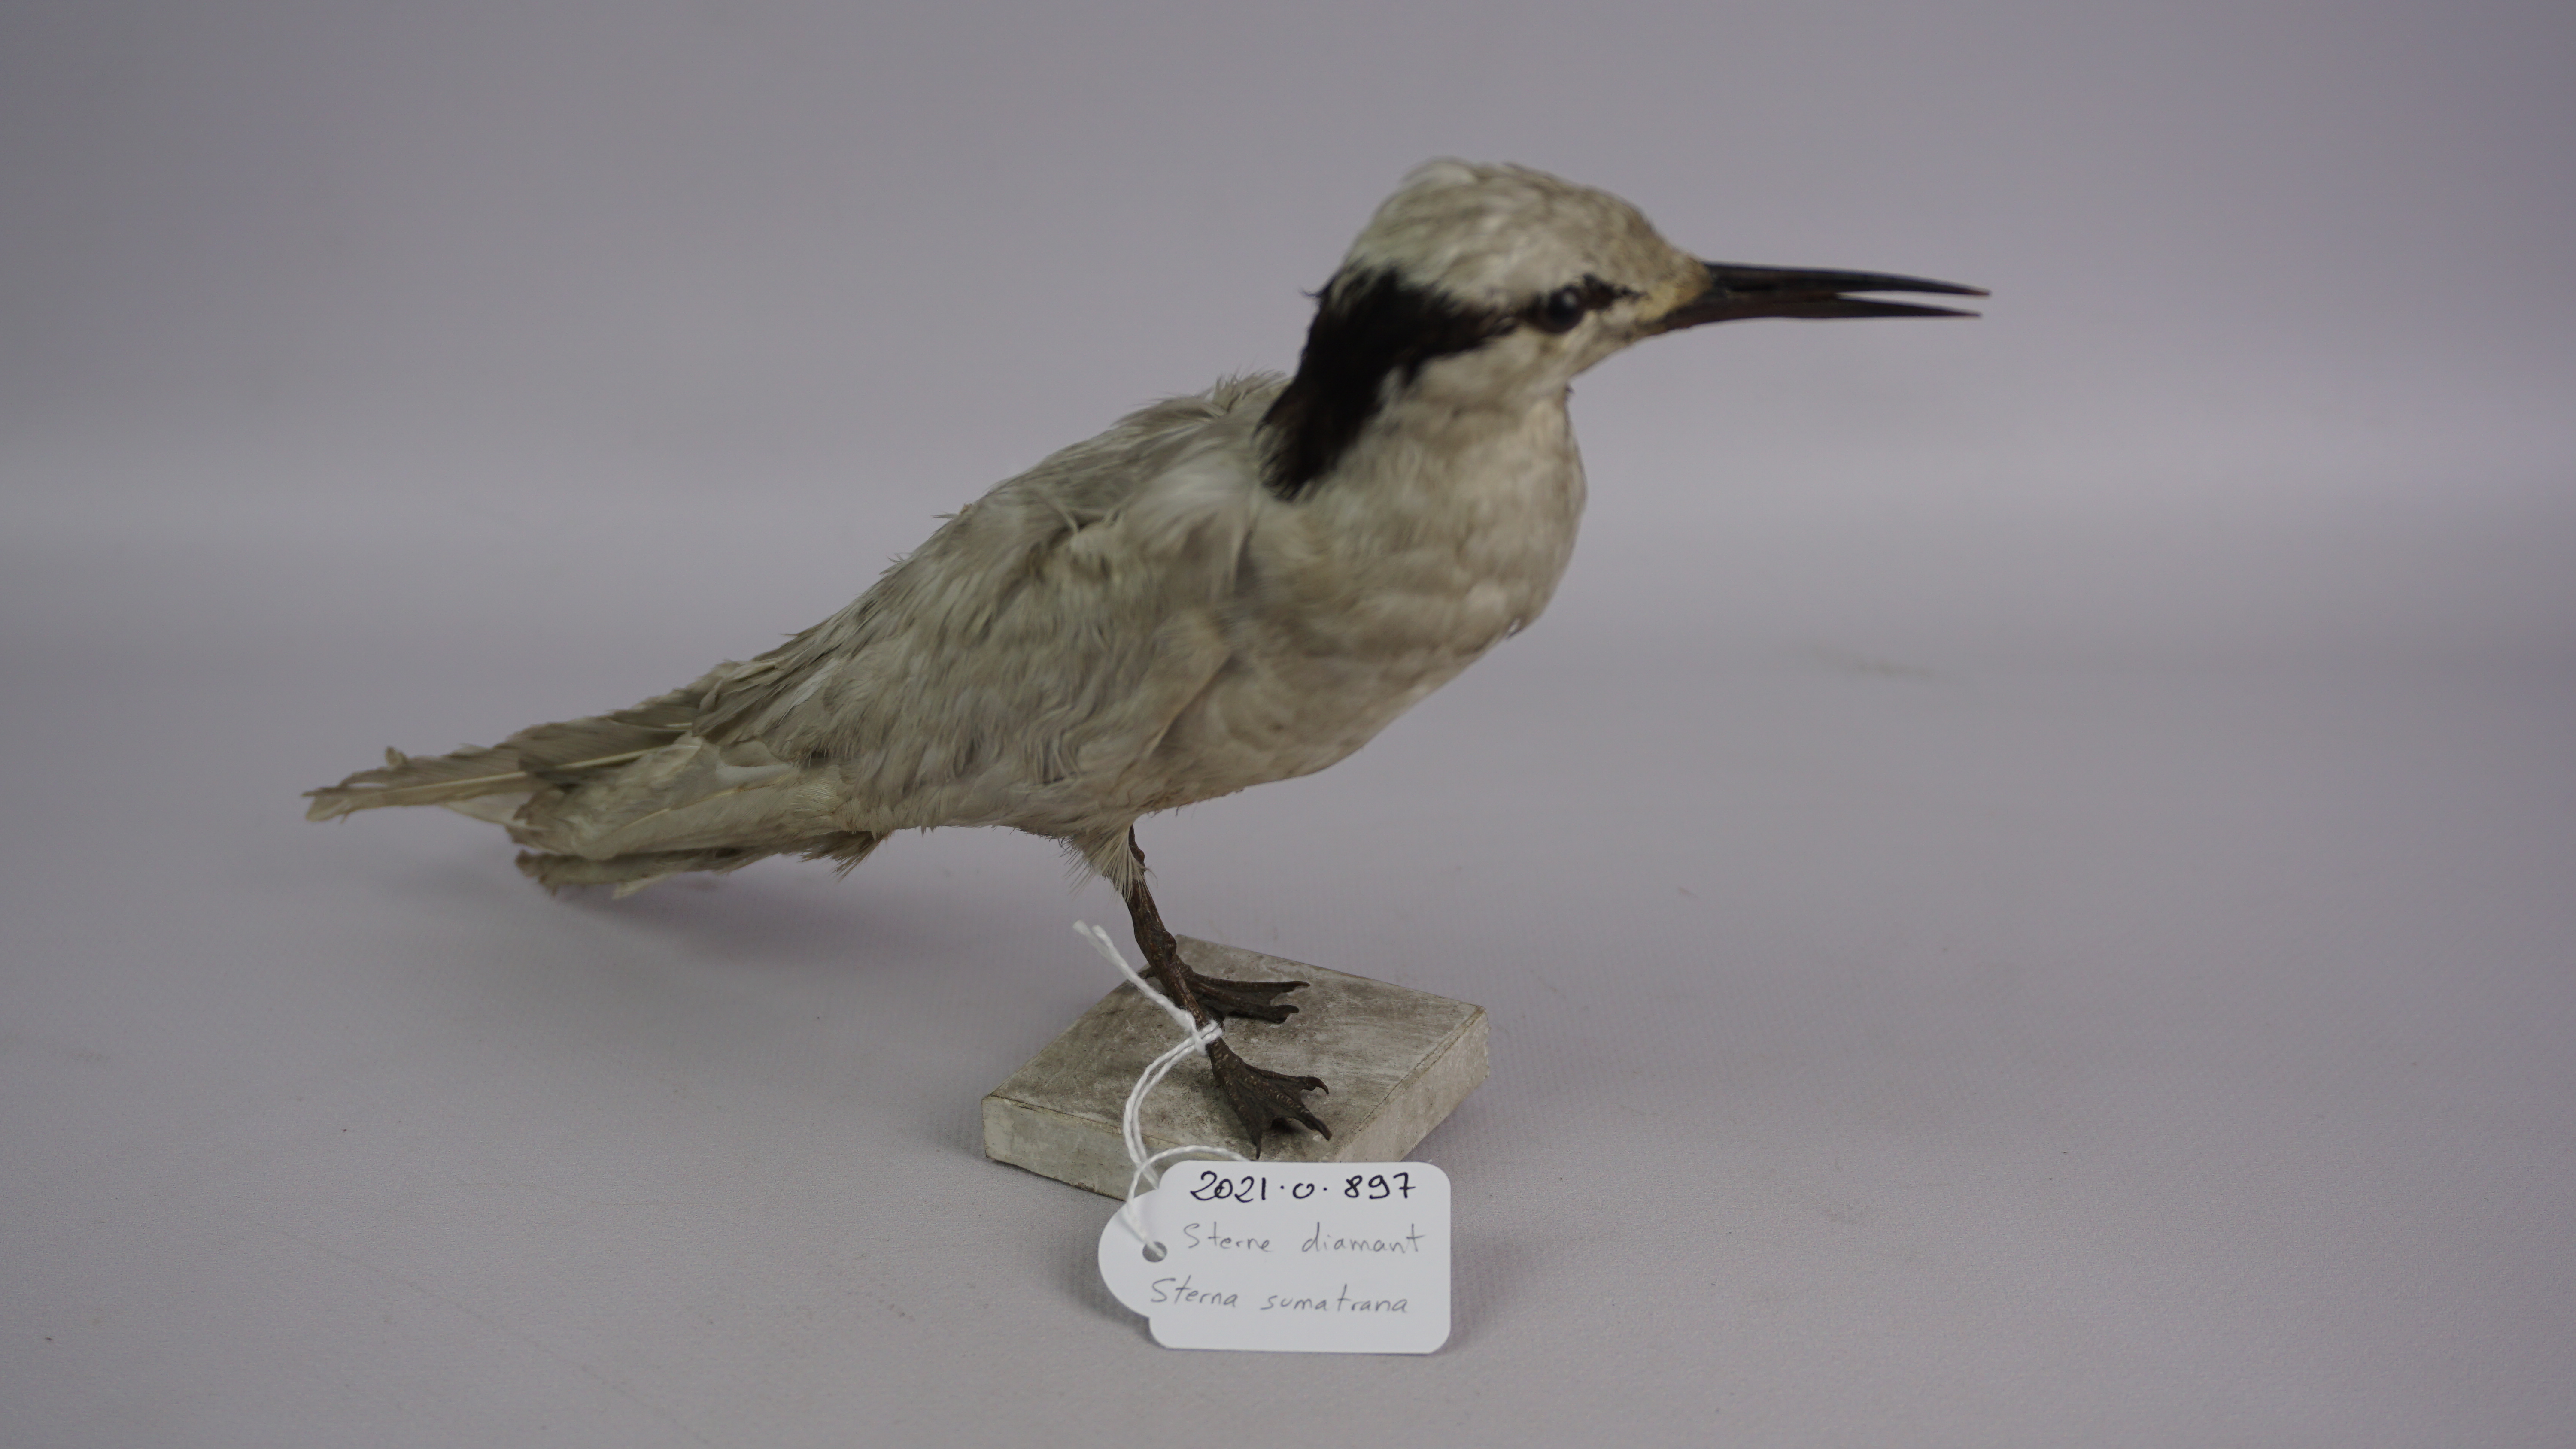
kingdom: Animalia
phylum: Chordata
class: Aves
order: Charadriiformes
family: Laridae
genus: Sterna
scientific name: Sterna sumatrana
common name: Black-naped tern
